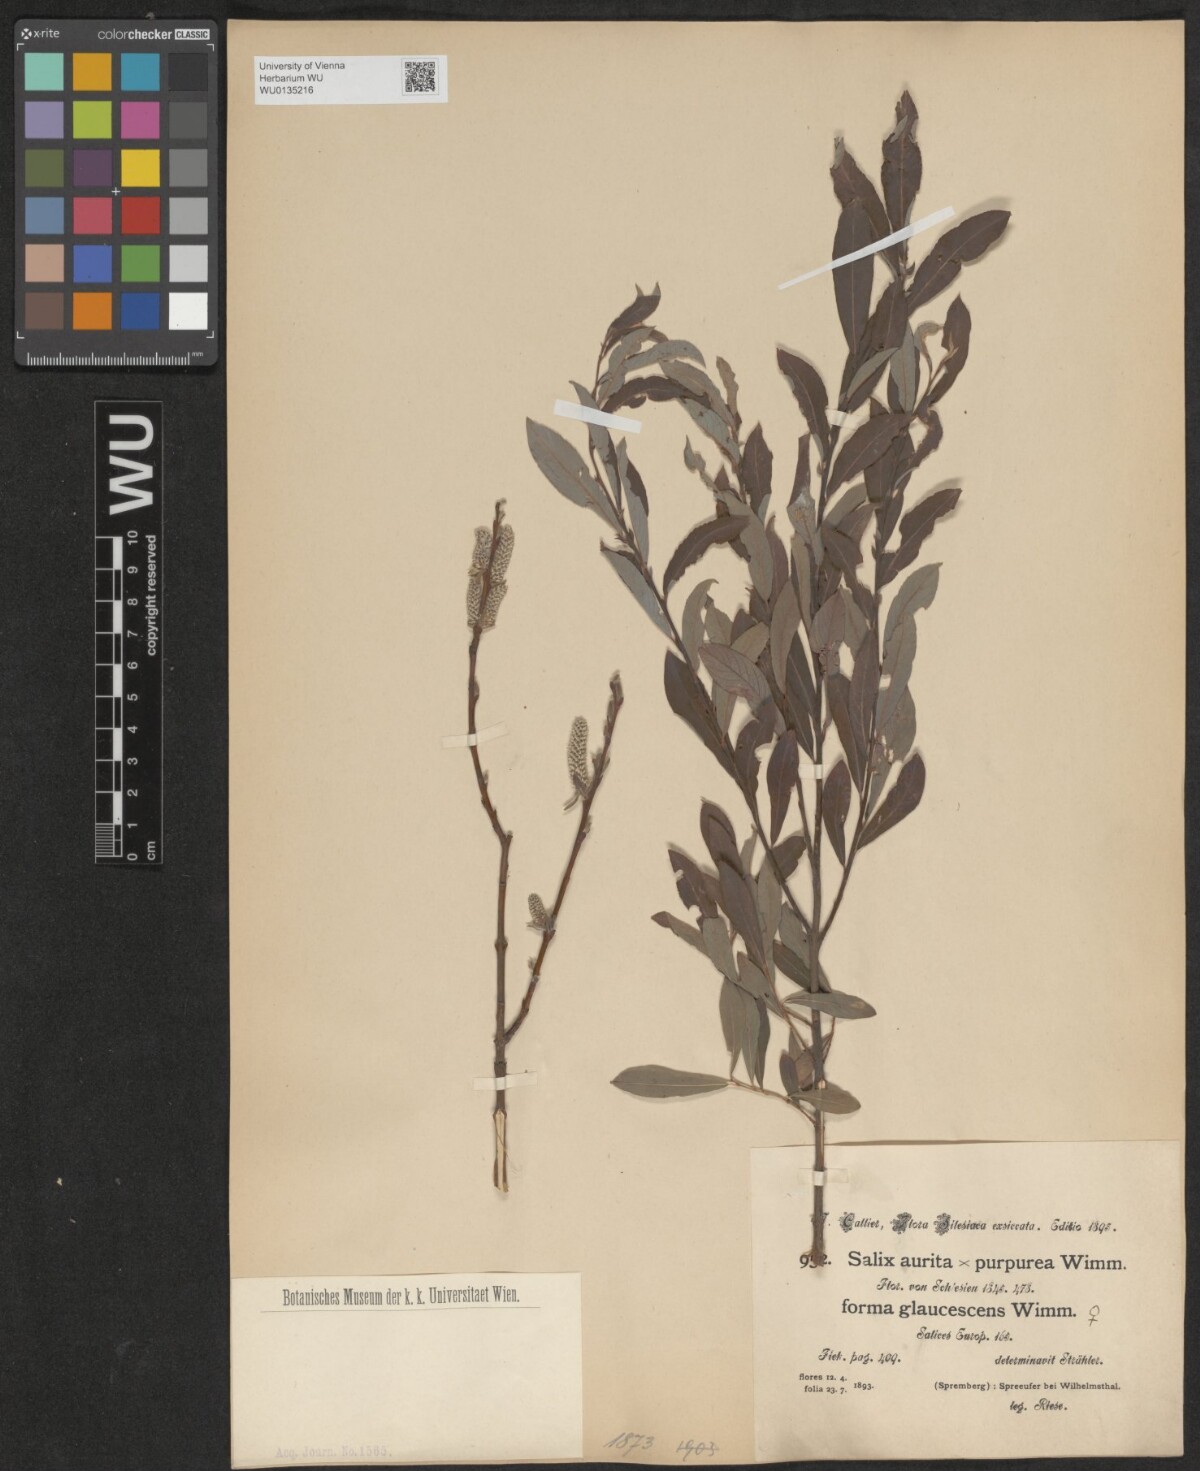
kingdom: Plantae
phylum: Tracheophyta
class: Magnoliopsida
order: Malpighiales
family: Salicaceae
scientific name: Salicaceae
